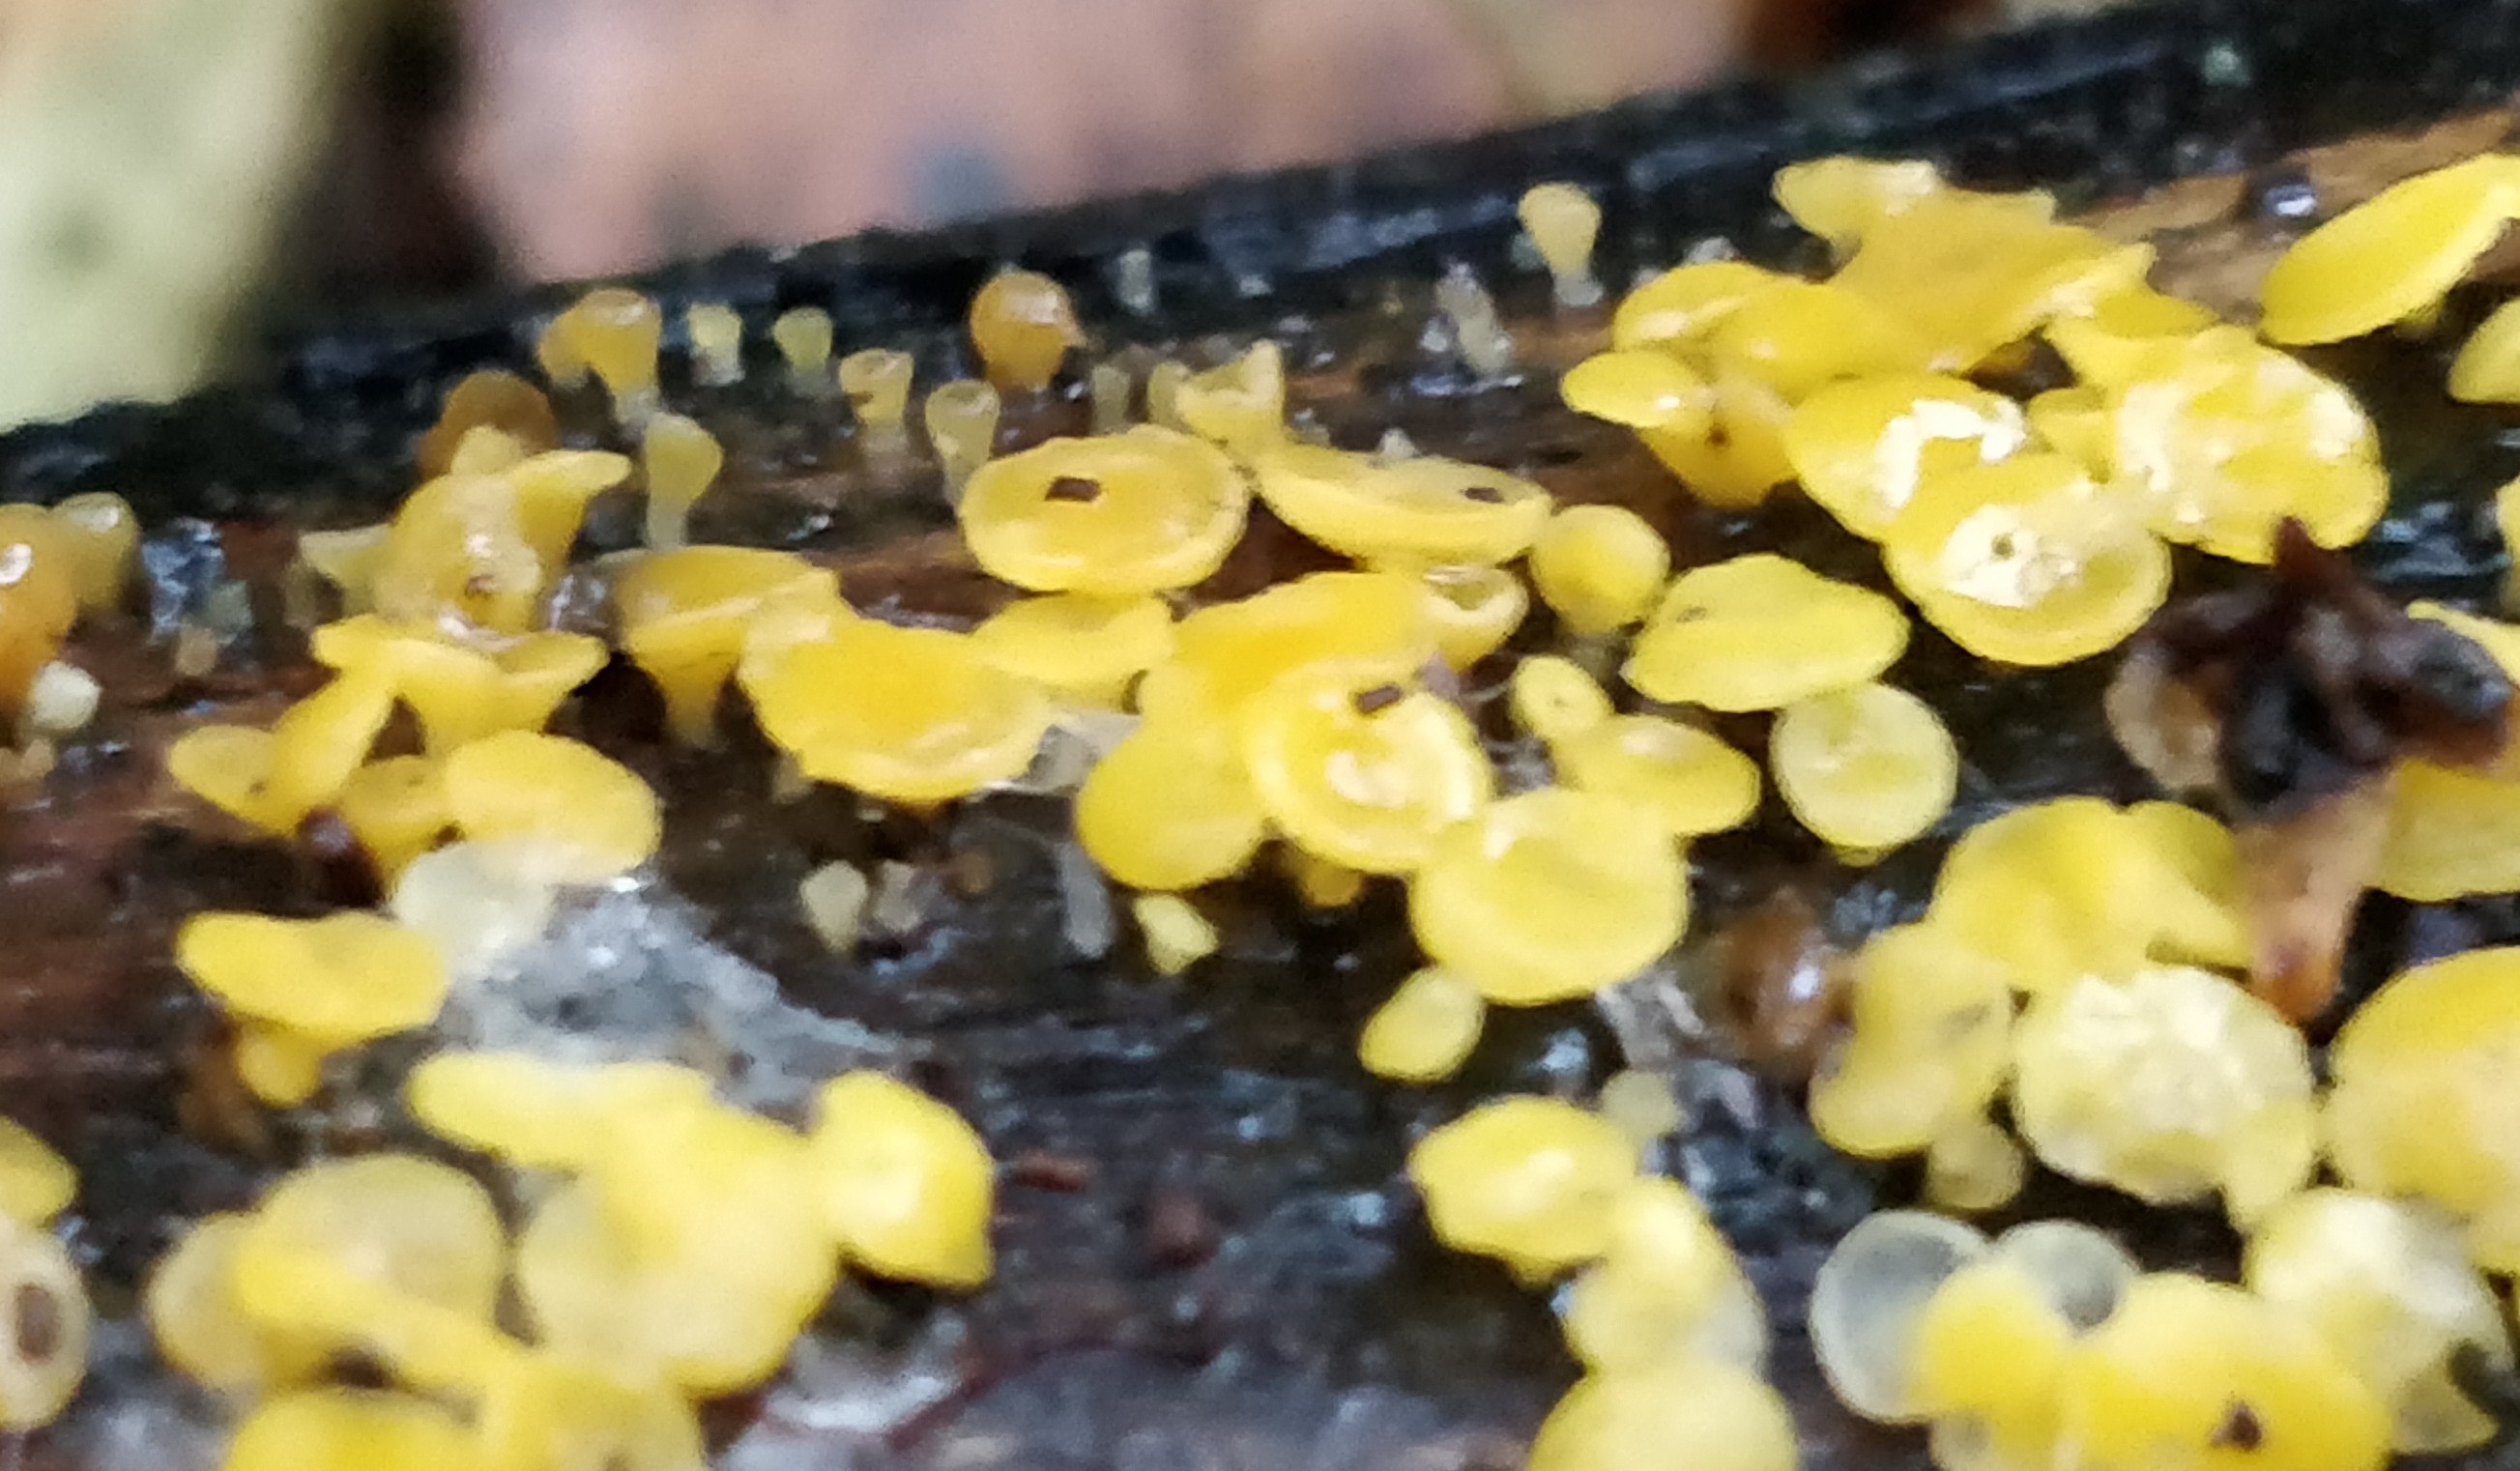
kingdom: Fungi
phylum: Ascomycota
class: Leotiomycetes
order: Helotiales
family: Pezizellaceae
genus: Calycina
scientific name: Calycina citrina
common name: almindelig gulskive
